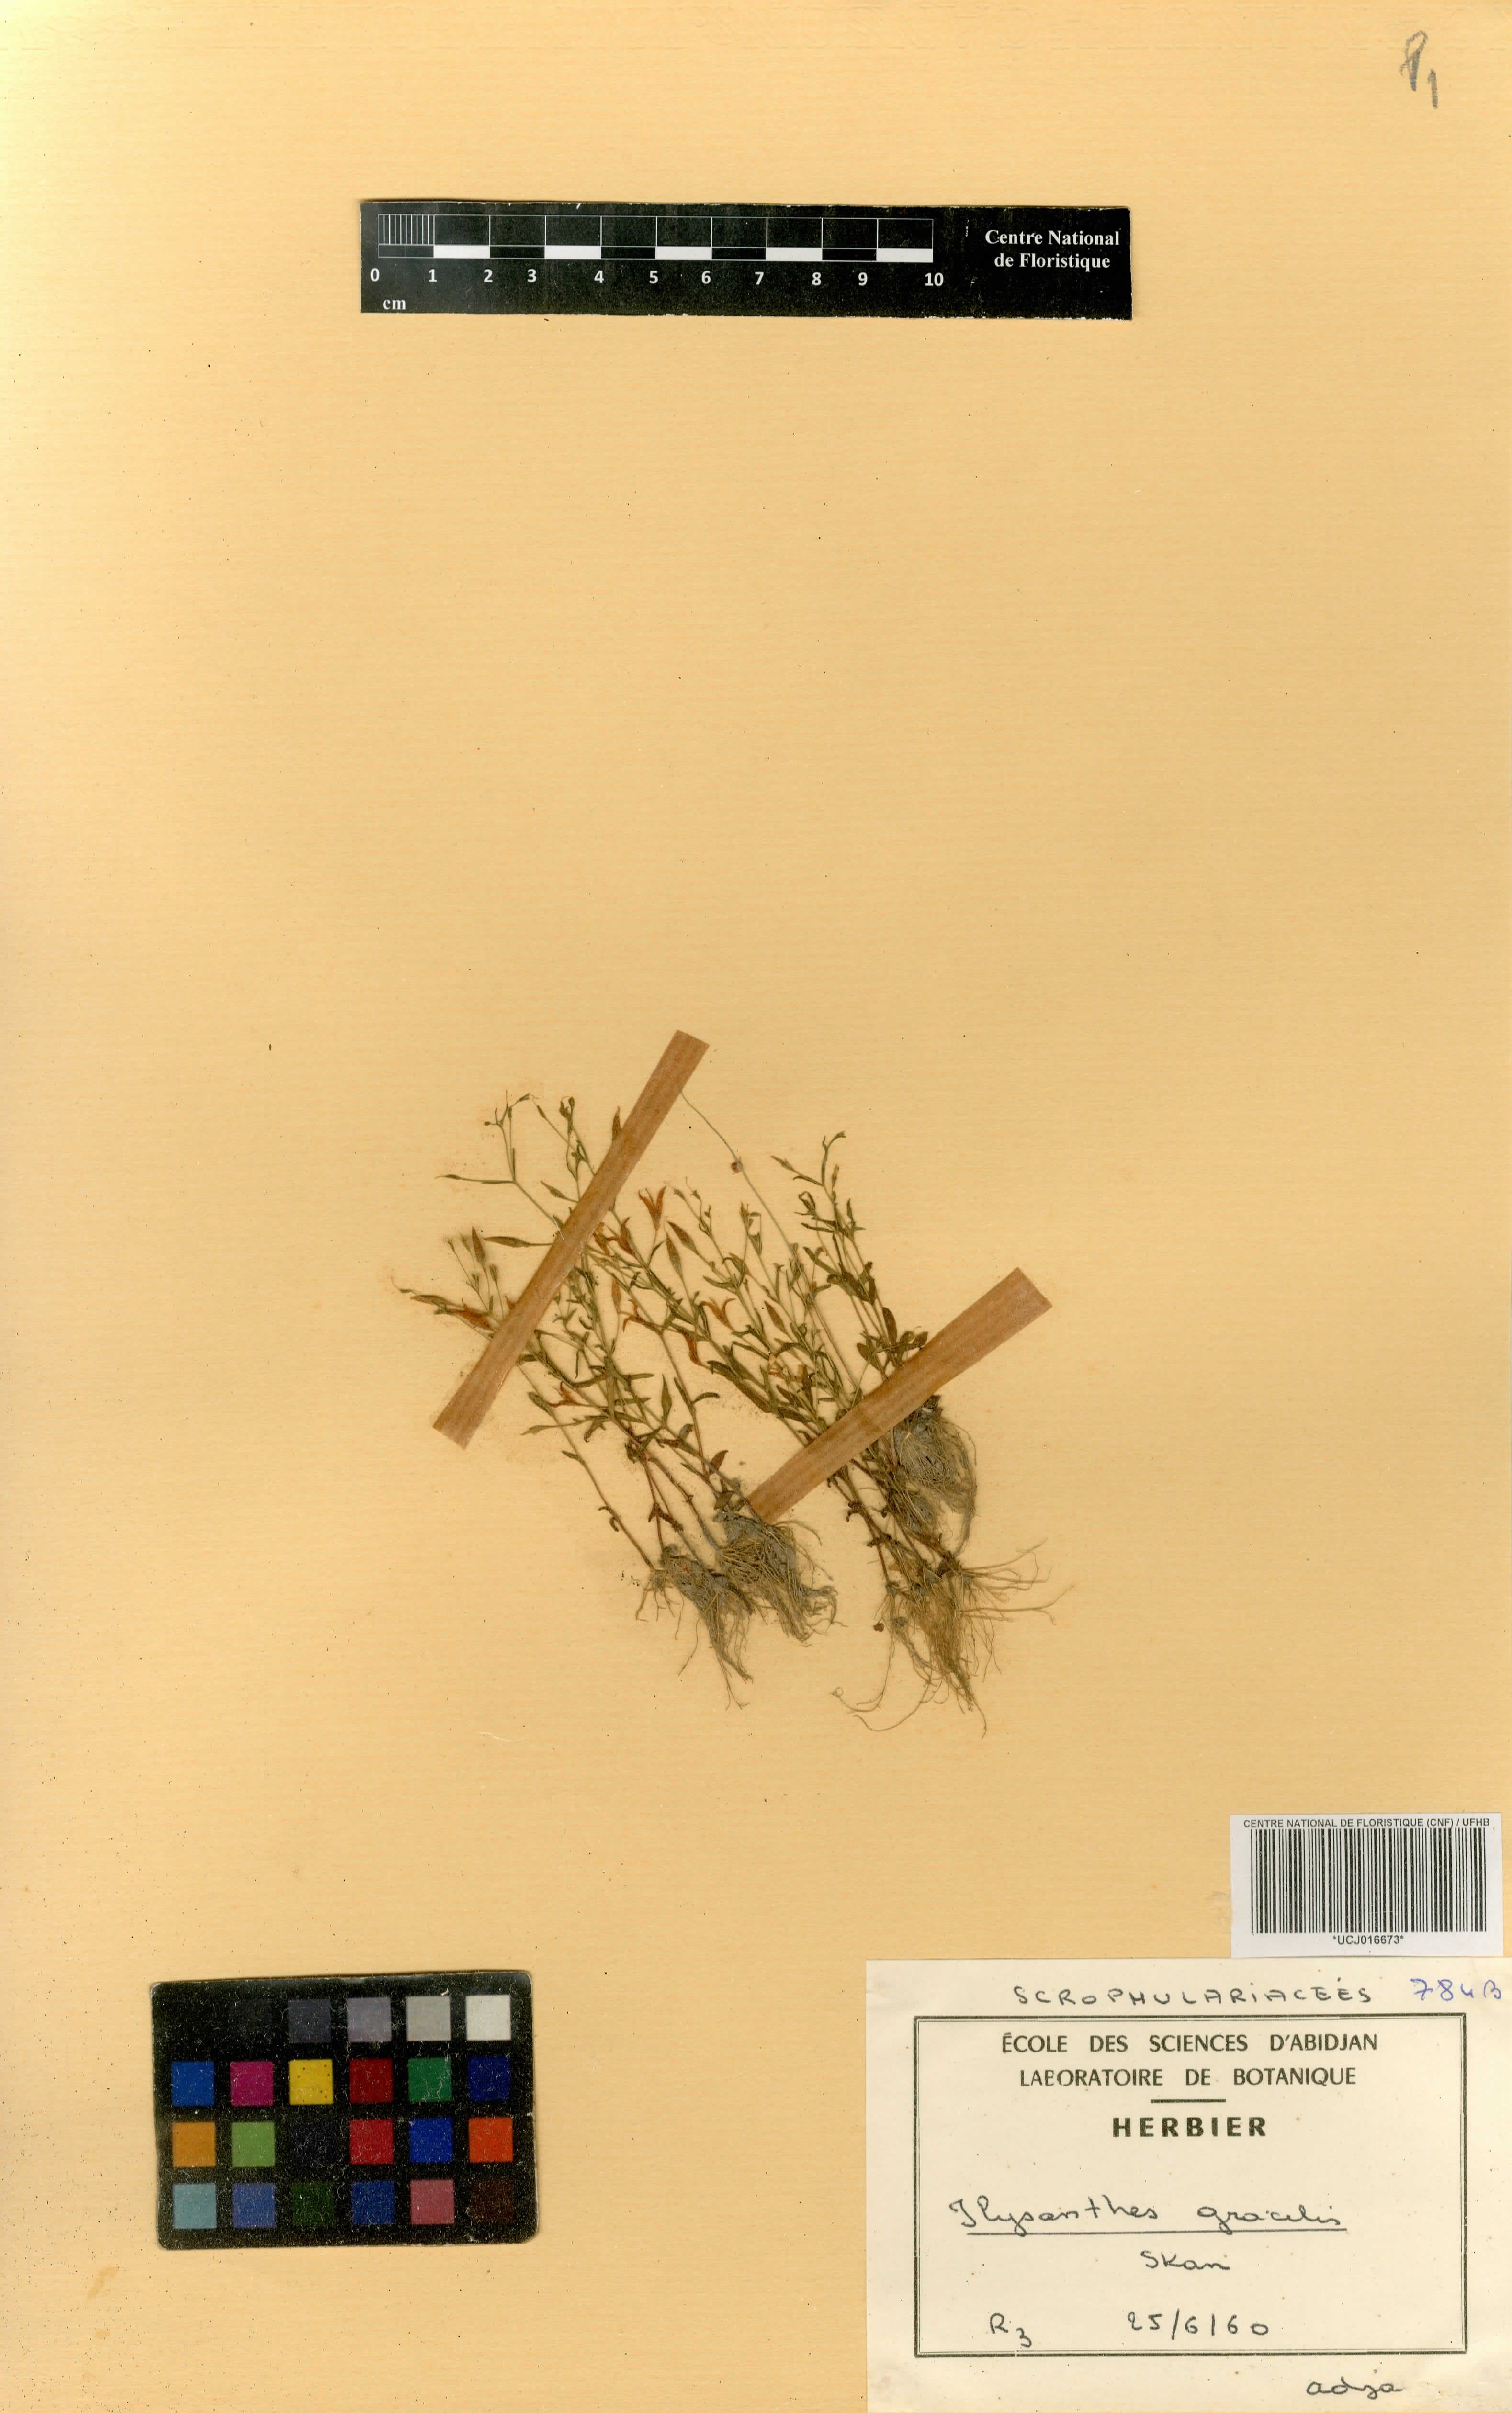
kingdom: Plantae
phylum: Tracheophyta
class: Magnoliopsida
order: Lamiales
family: Linderniaceae
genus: Linderniella
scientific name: Linderniella gracilis
